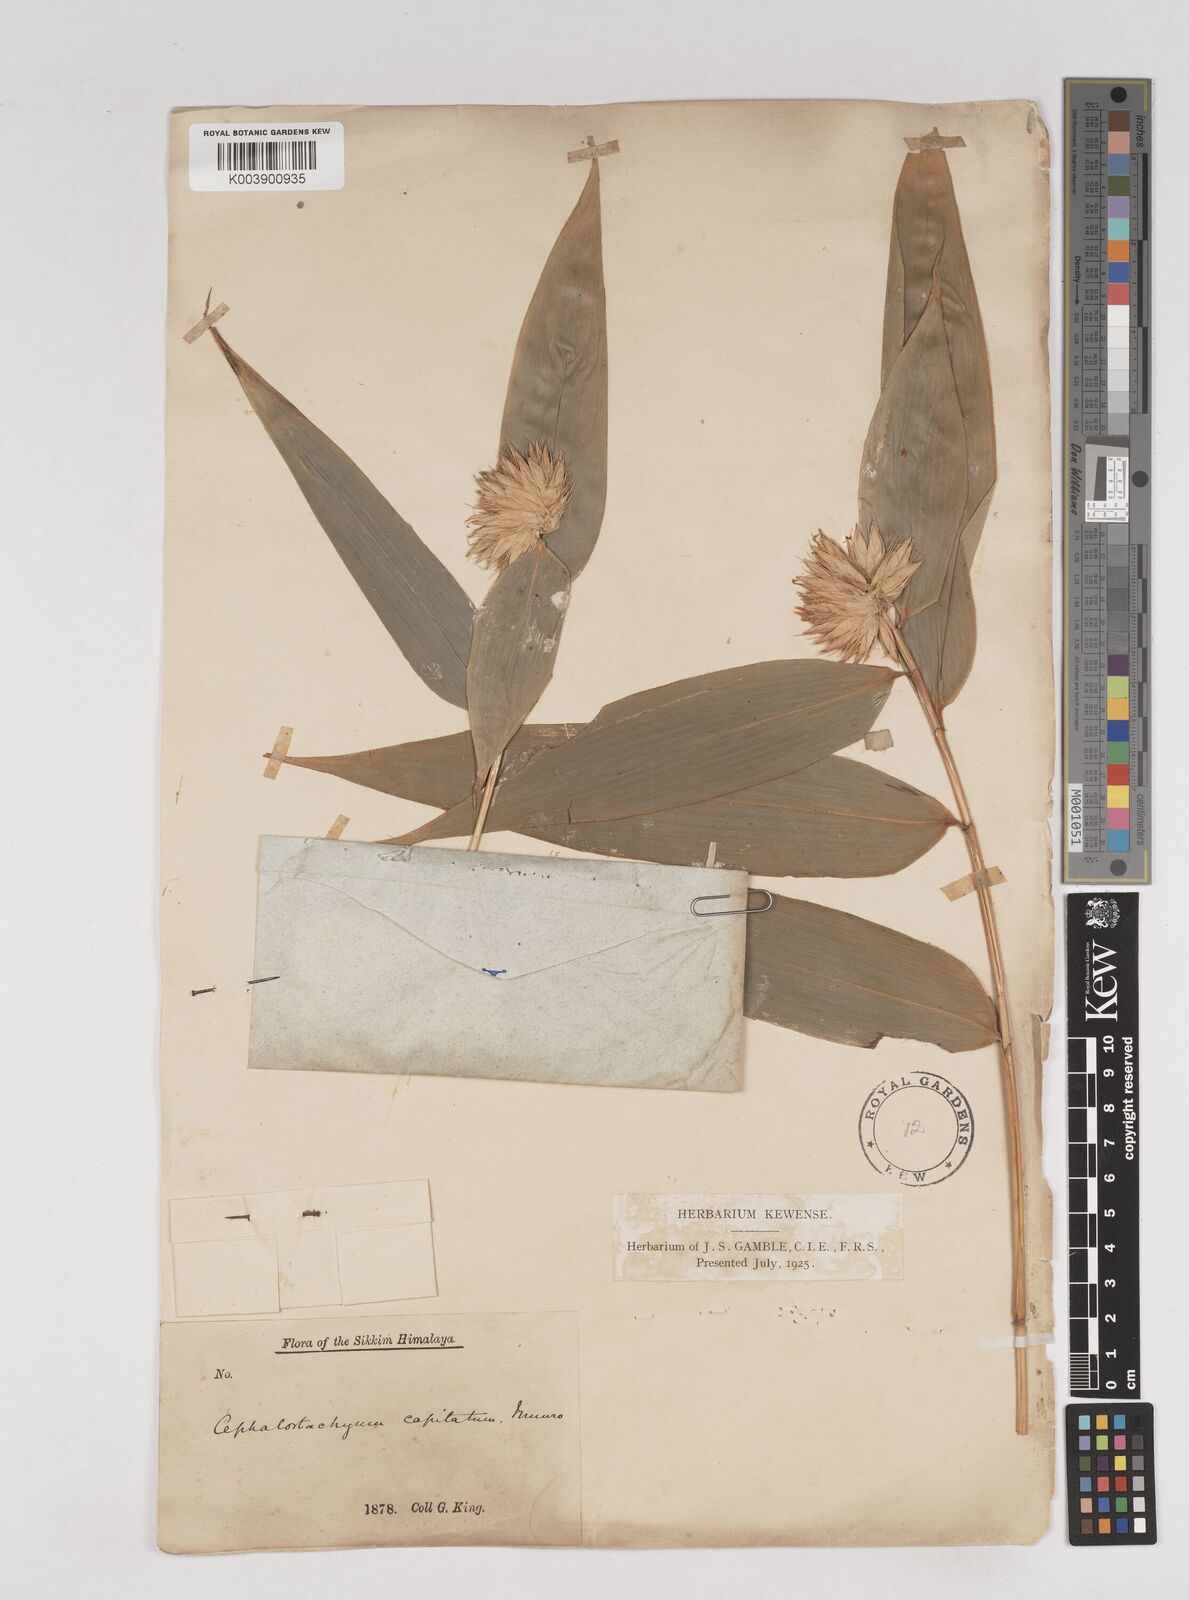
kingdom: Plantae
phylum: Tracheophyta
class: Liliopsida
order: Poales
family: Poaceae
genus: Cephalostachyum
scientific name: Cephalostachyum capitatum
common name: Hollow bamboo
